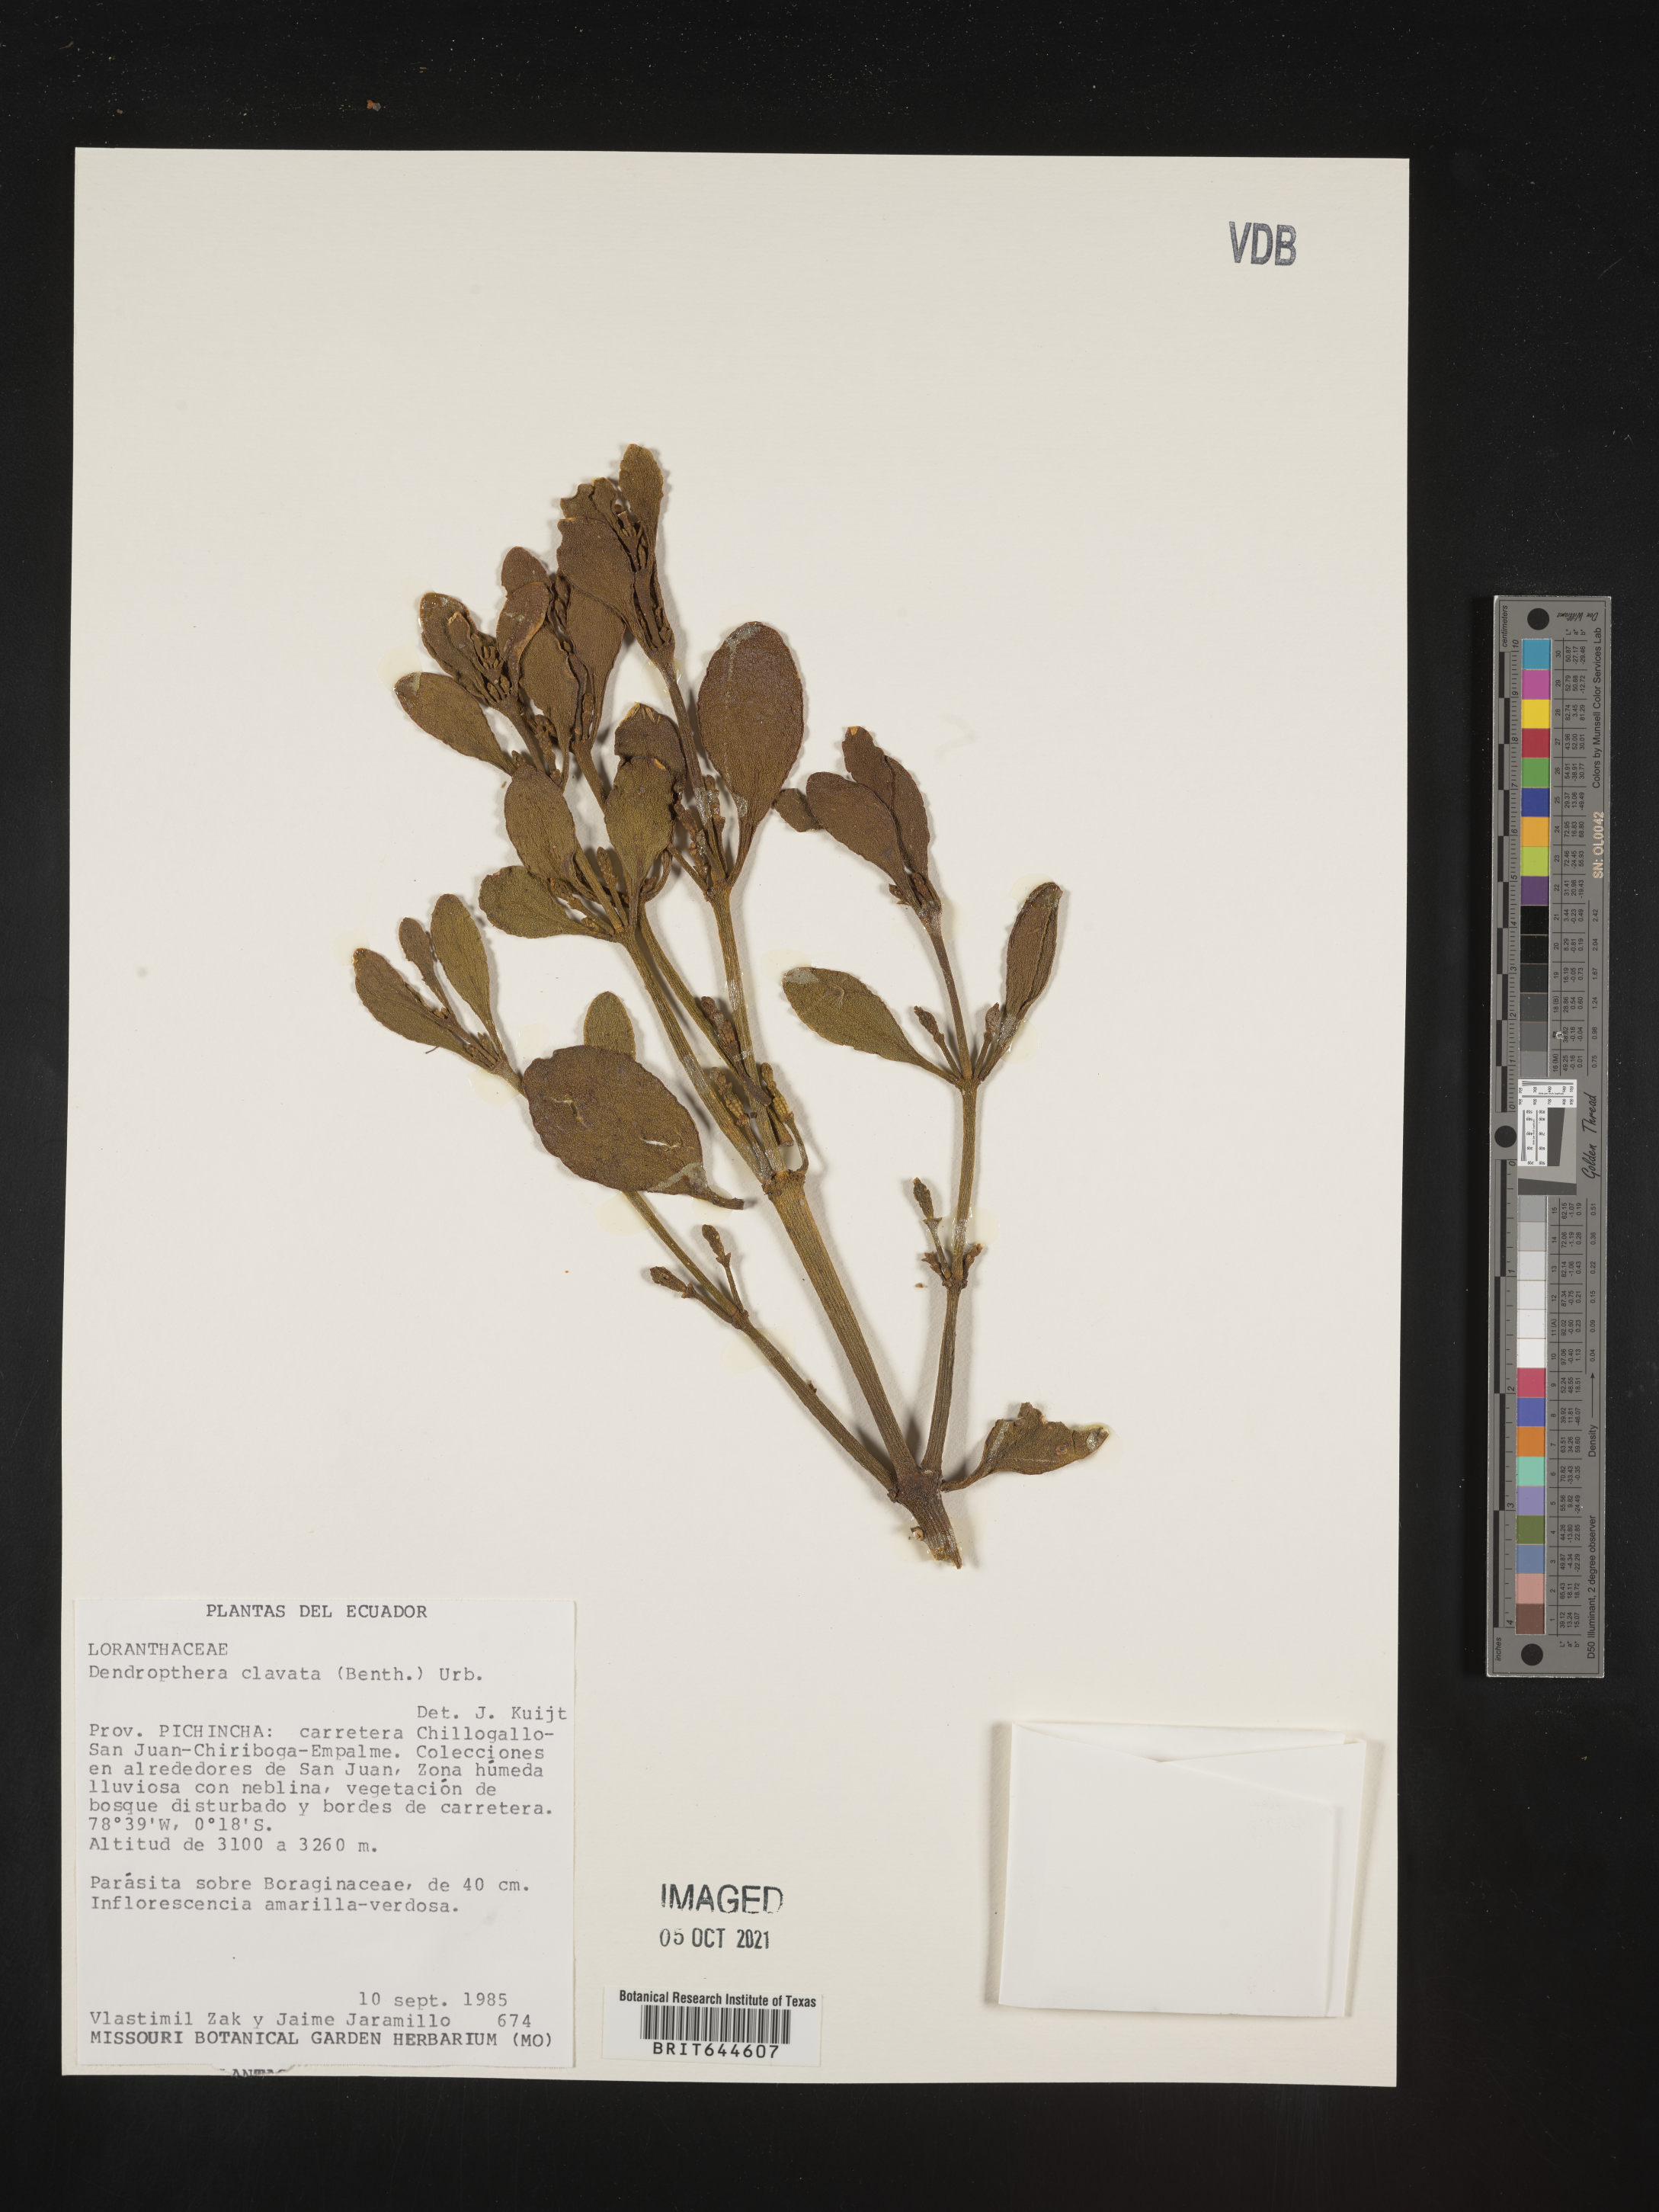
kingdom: Plantae
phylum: Tracheophyta
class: Magnoliopsida
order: Santalales
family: Viscaceae
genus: Dendrophthora
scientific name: Dendrophthora
